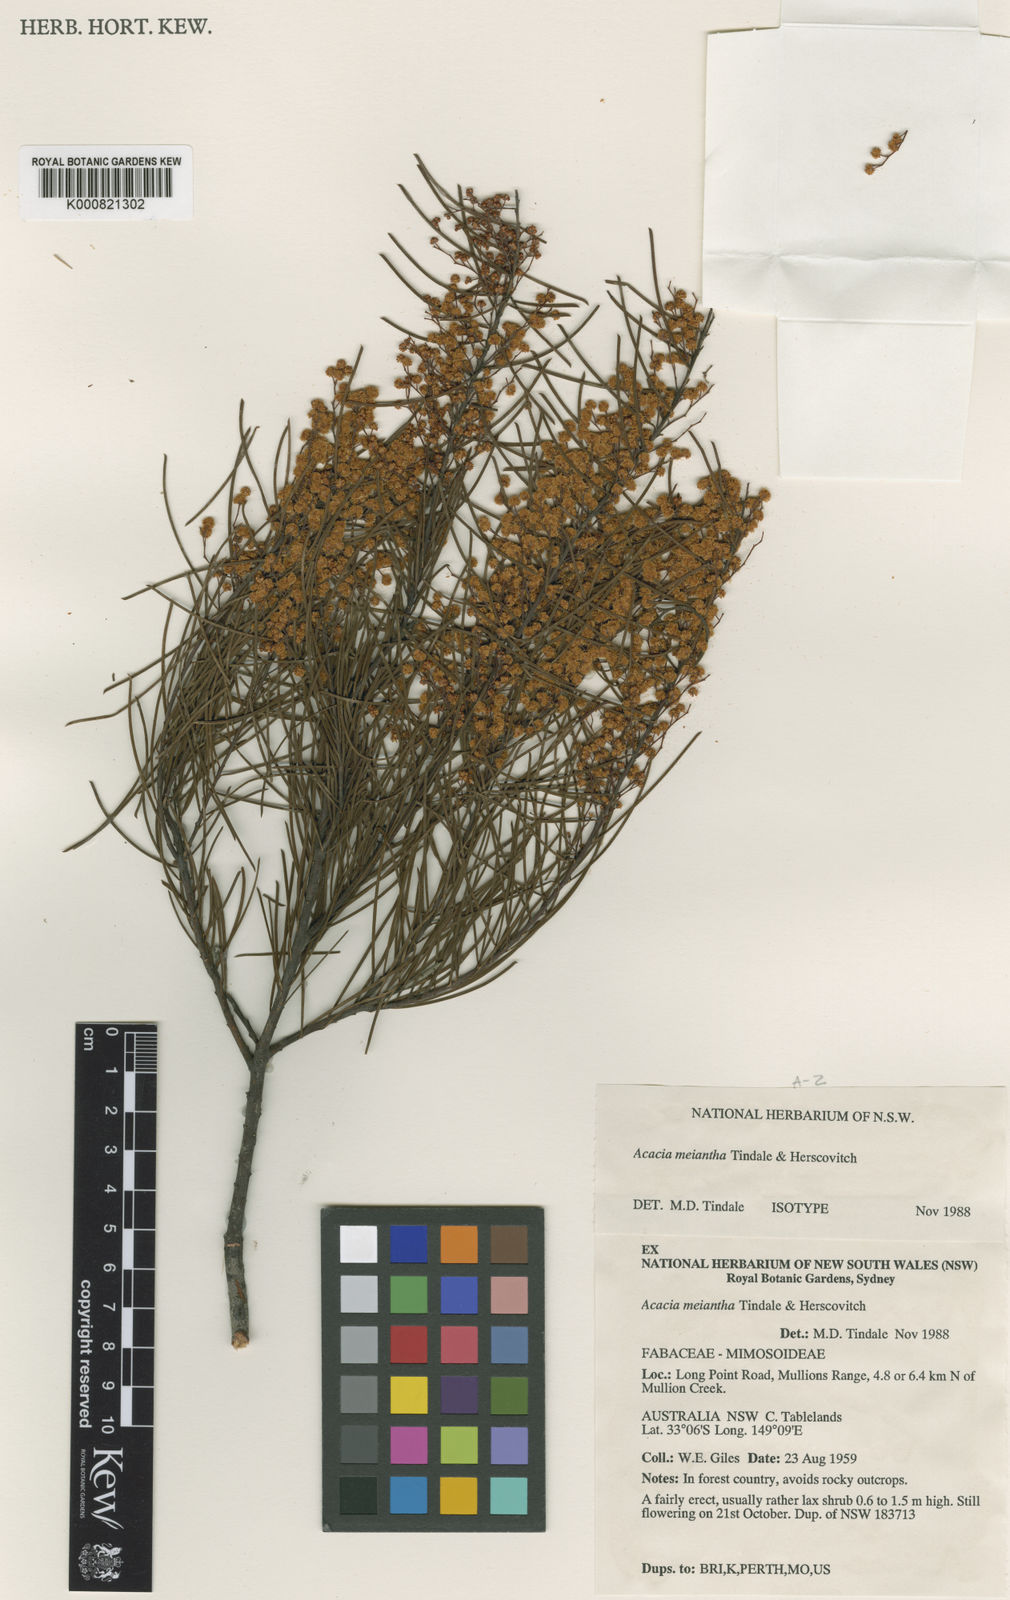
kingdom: Plantae
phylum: Tracheophyta
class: Magnoliopsida
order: Fabales
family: Fabaceae
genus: Acacia
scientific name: Acacia meiantha
